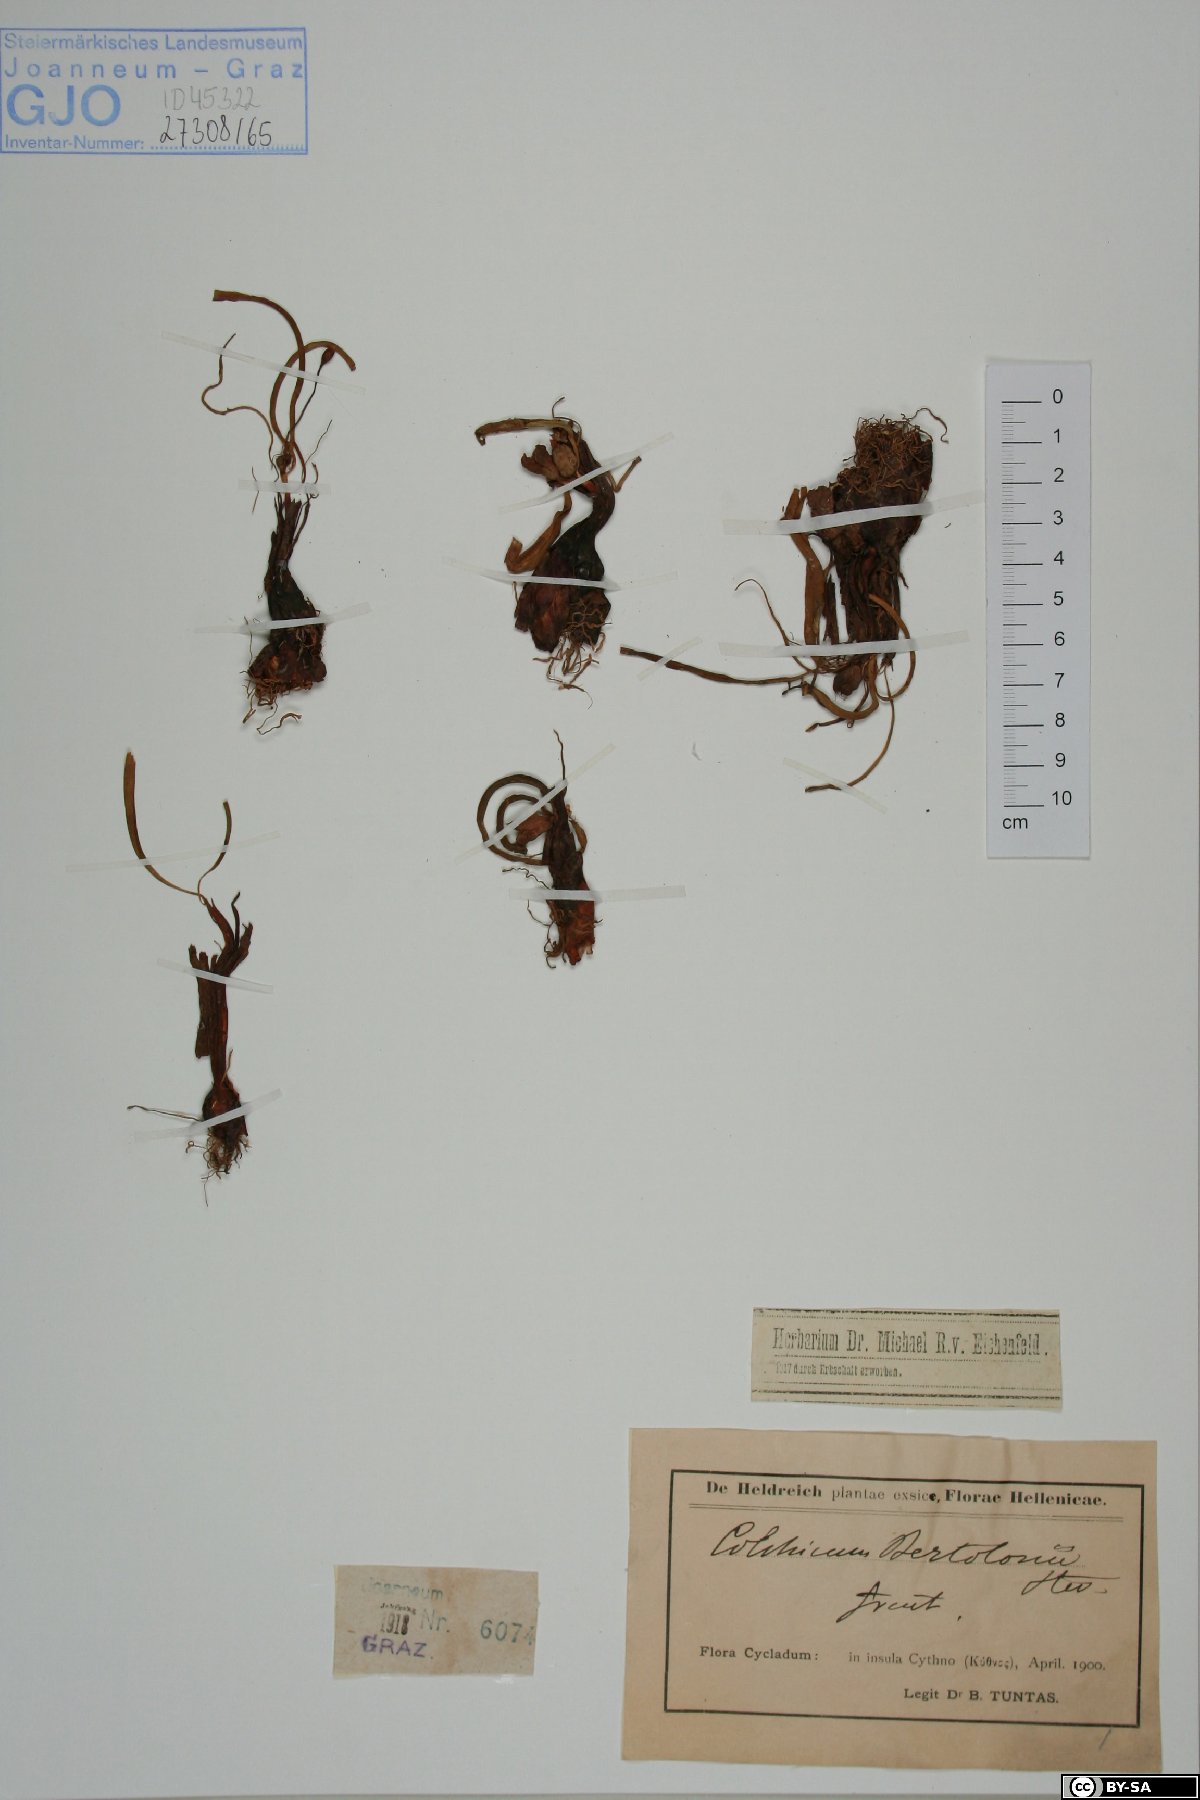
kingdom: Plantae
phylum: Tracheophyta
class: Liliopsida
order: Liliales
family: Colchicaceae
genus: Colchicum
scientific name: Colchicum cupanii
